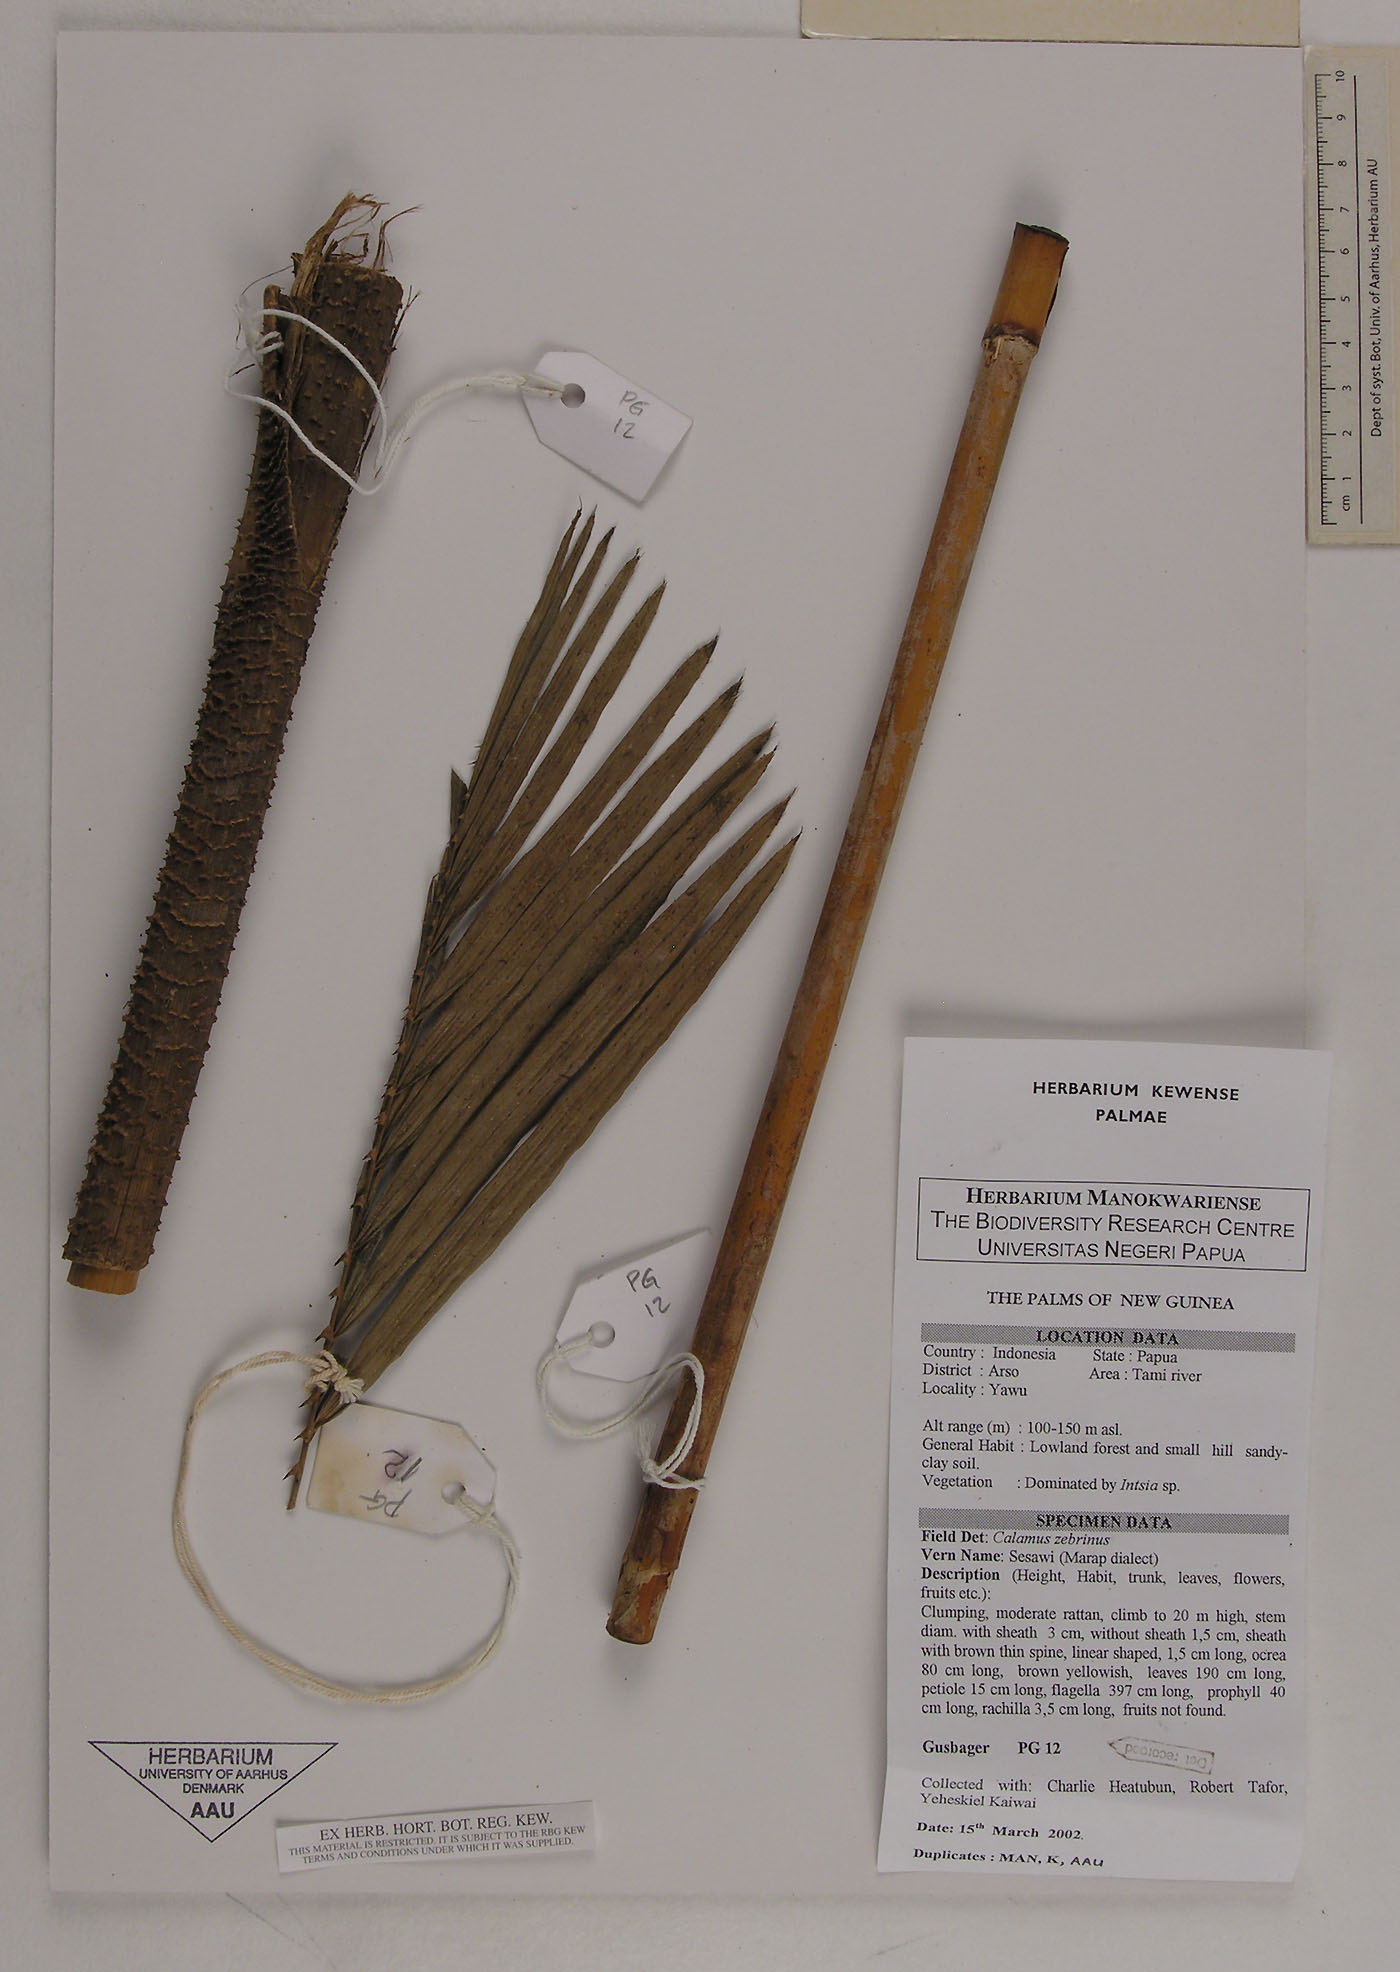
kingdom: Plantae
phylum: Tracheophyta
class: Liliopsida
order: Arecales
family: Arecaceae
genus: Calamus
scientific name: Calamus zebrinus
